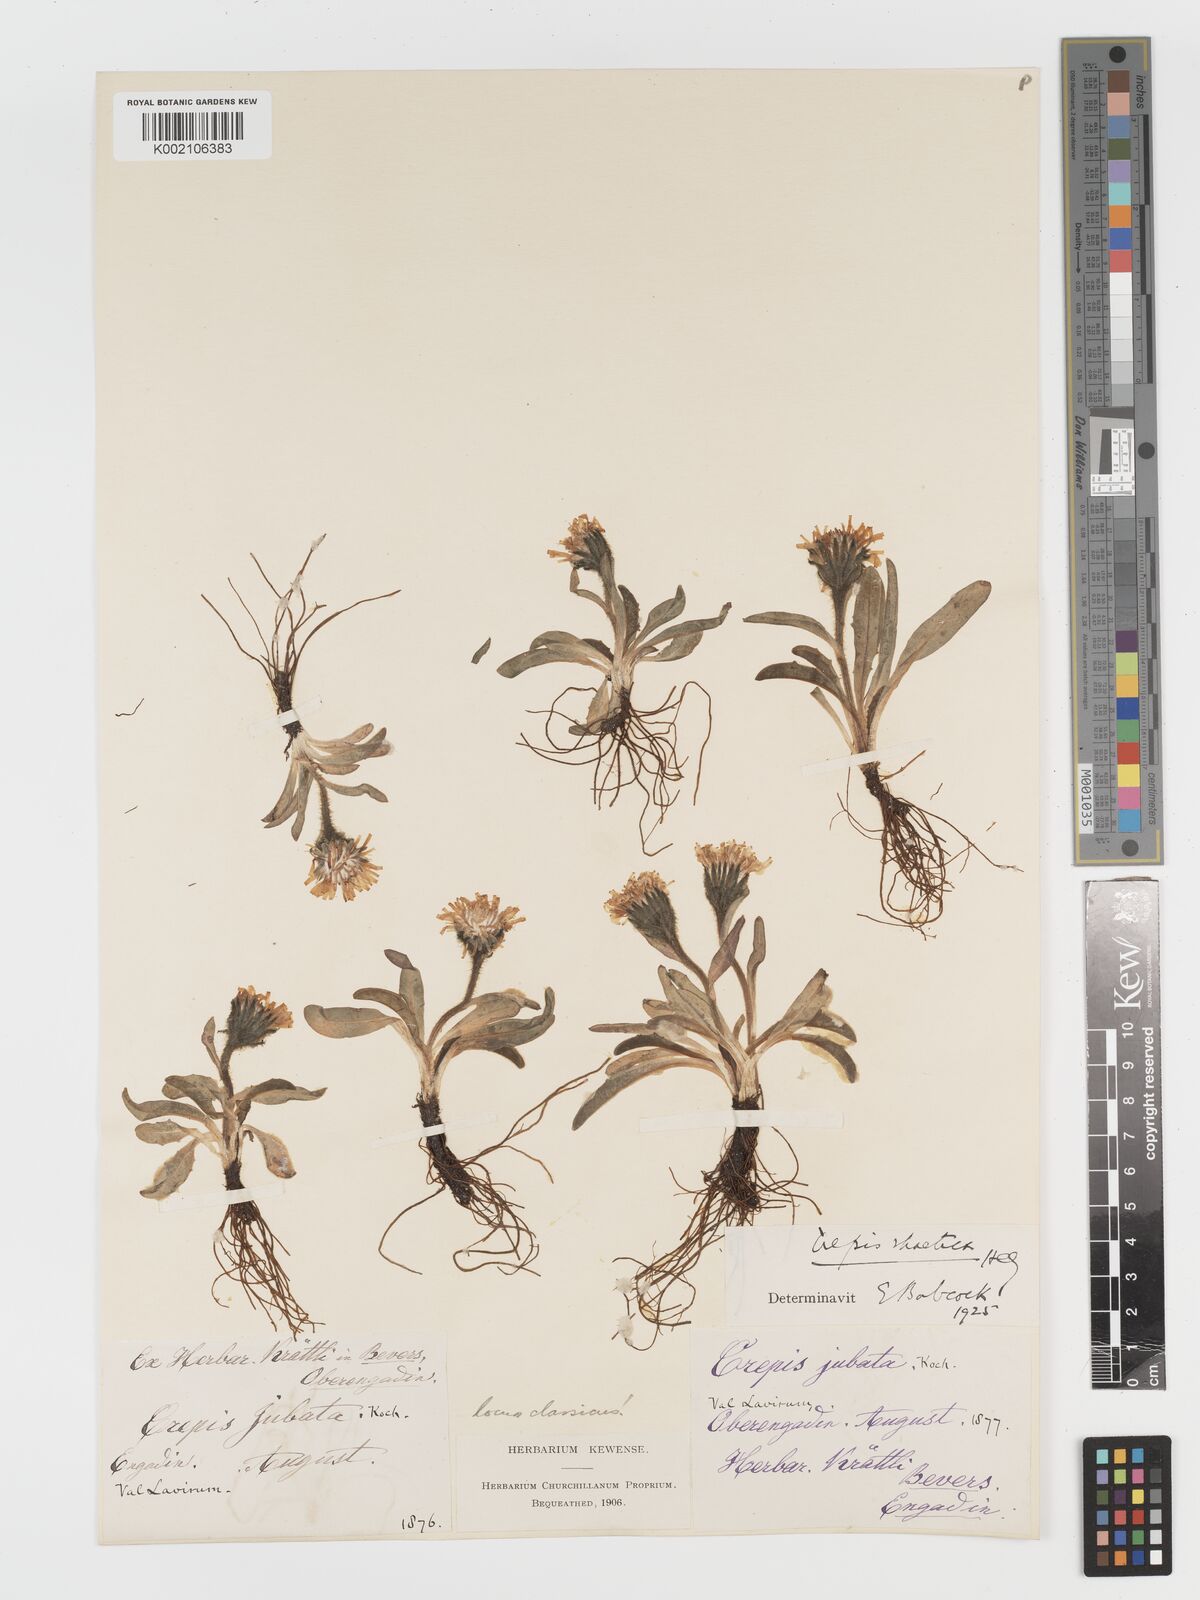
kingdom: Plantae
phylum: Tracheophyta
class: Magnoliopsida
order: Asterales
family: Asteraceae
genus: Crepis
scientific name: Crepis rhaetica
